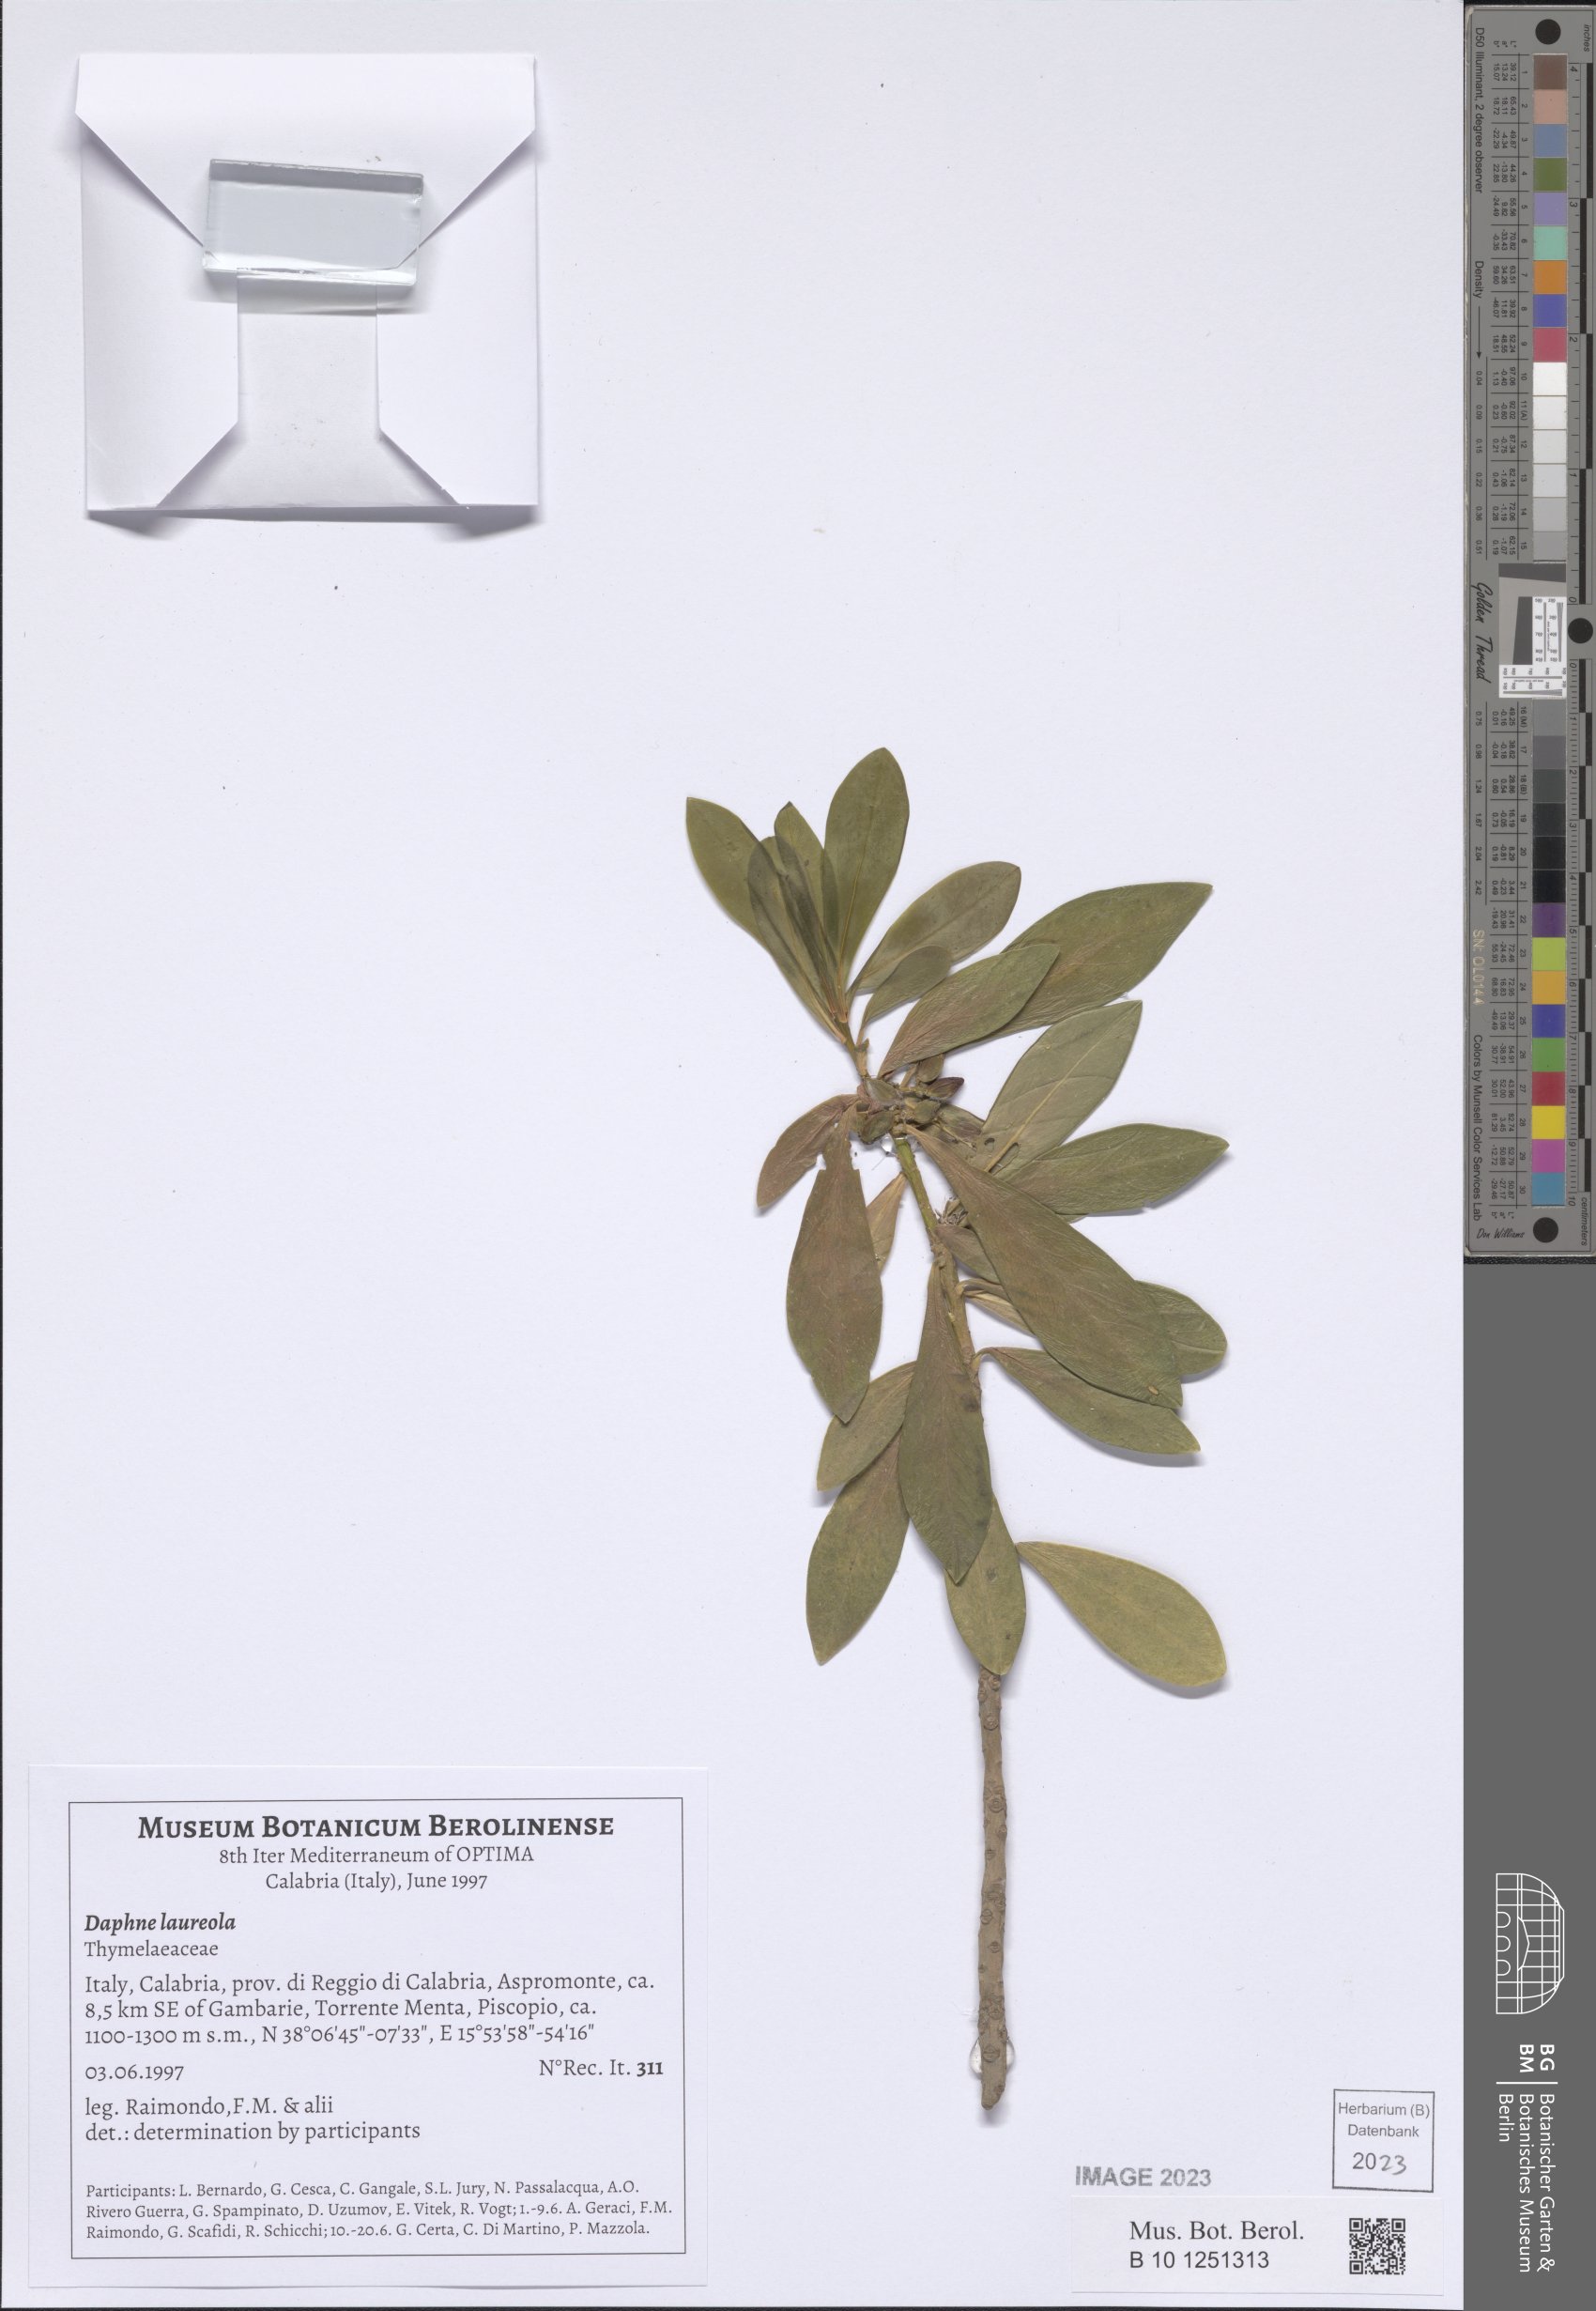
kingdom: Plantae
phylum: Tracheophyta
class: Magnoliopsida
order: Malvales
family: Thymelaeaceae
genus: Daphne
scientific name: Daphne laureola
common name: Spurge-laurel
